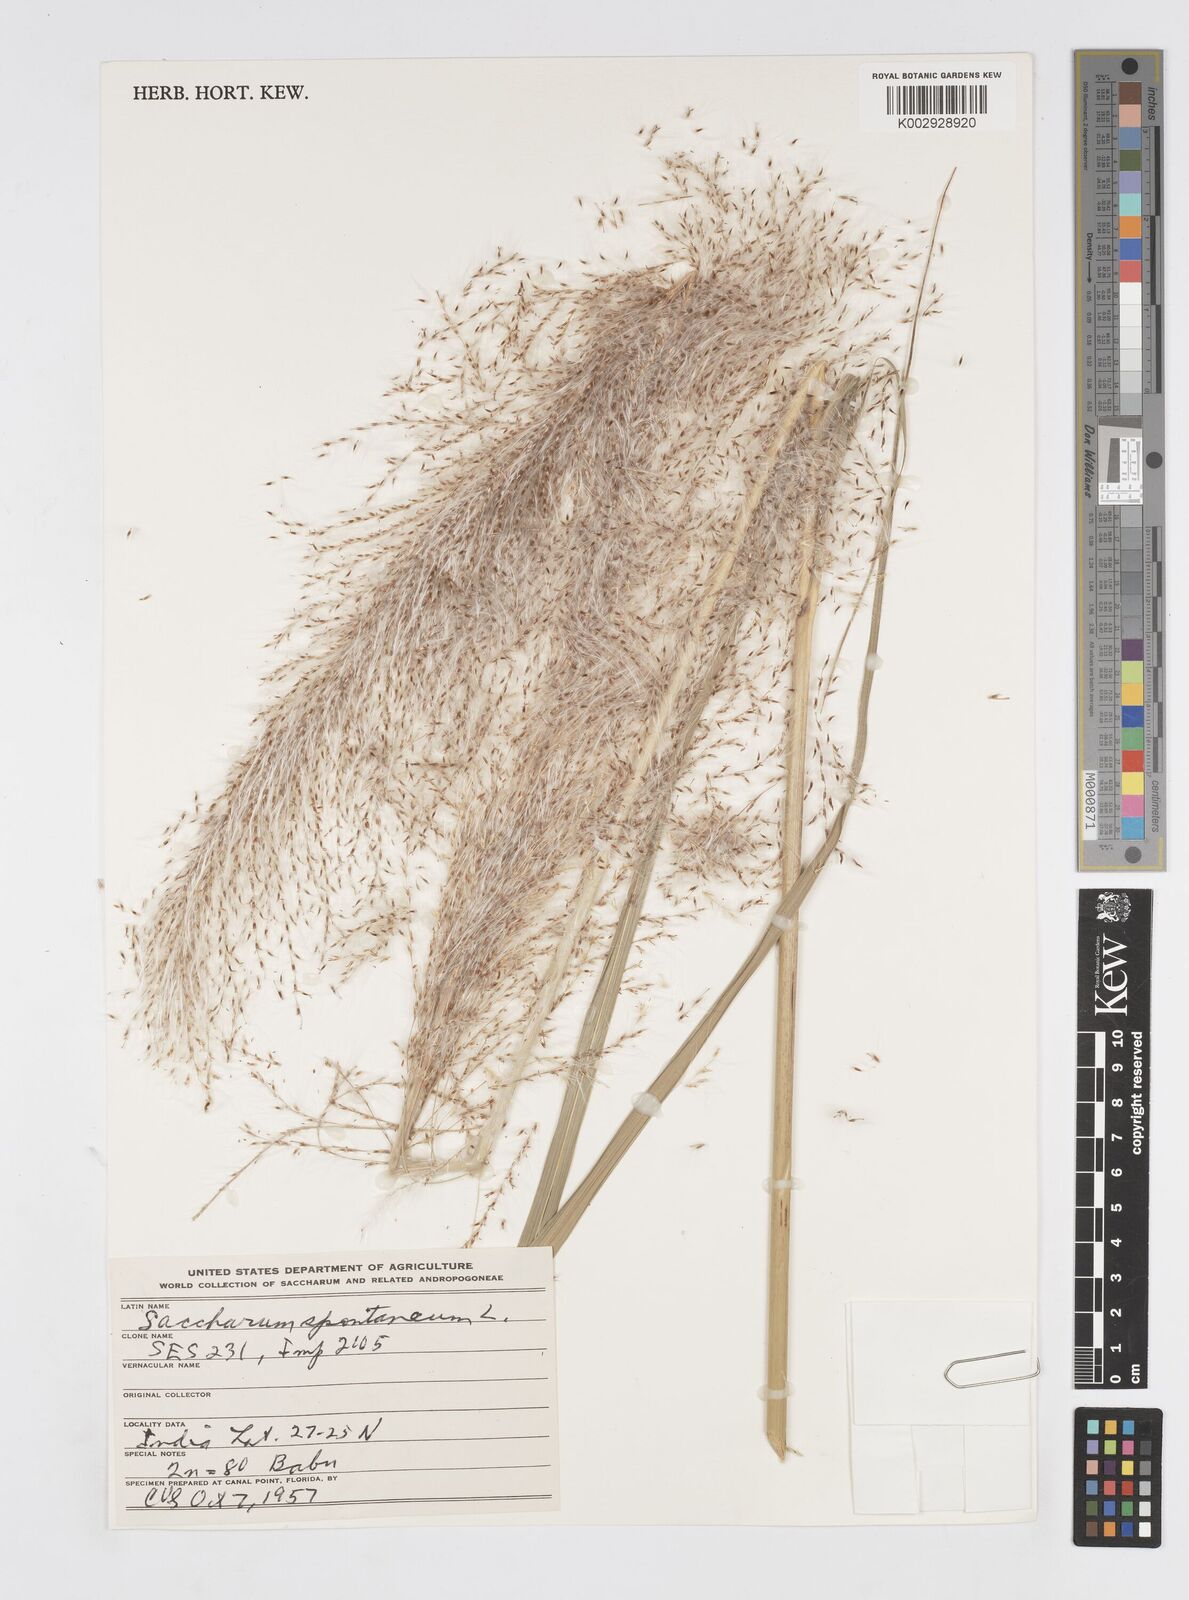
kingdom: Plantae
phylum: Tracheophyta
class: Liliopsida
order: Poales
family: Poaceae
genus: Saccharum
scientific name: Saccharum spontaneum
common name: Wild sugarcane
